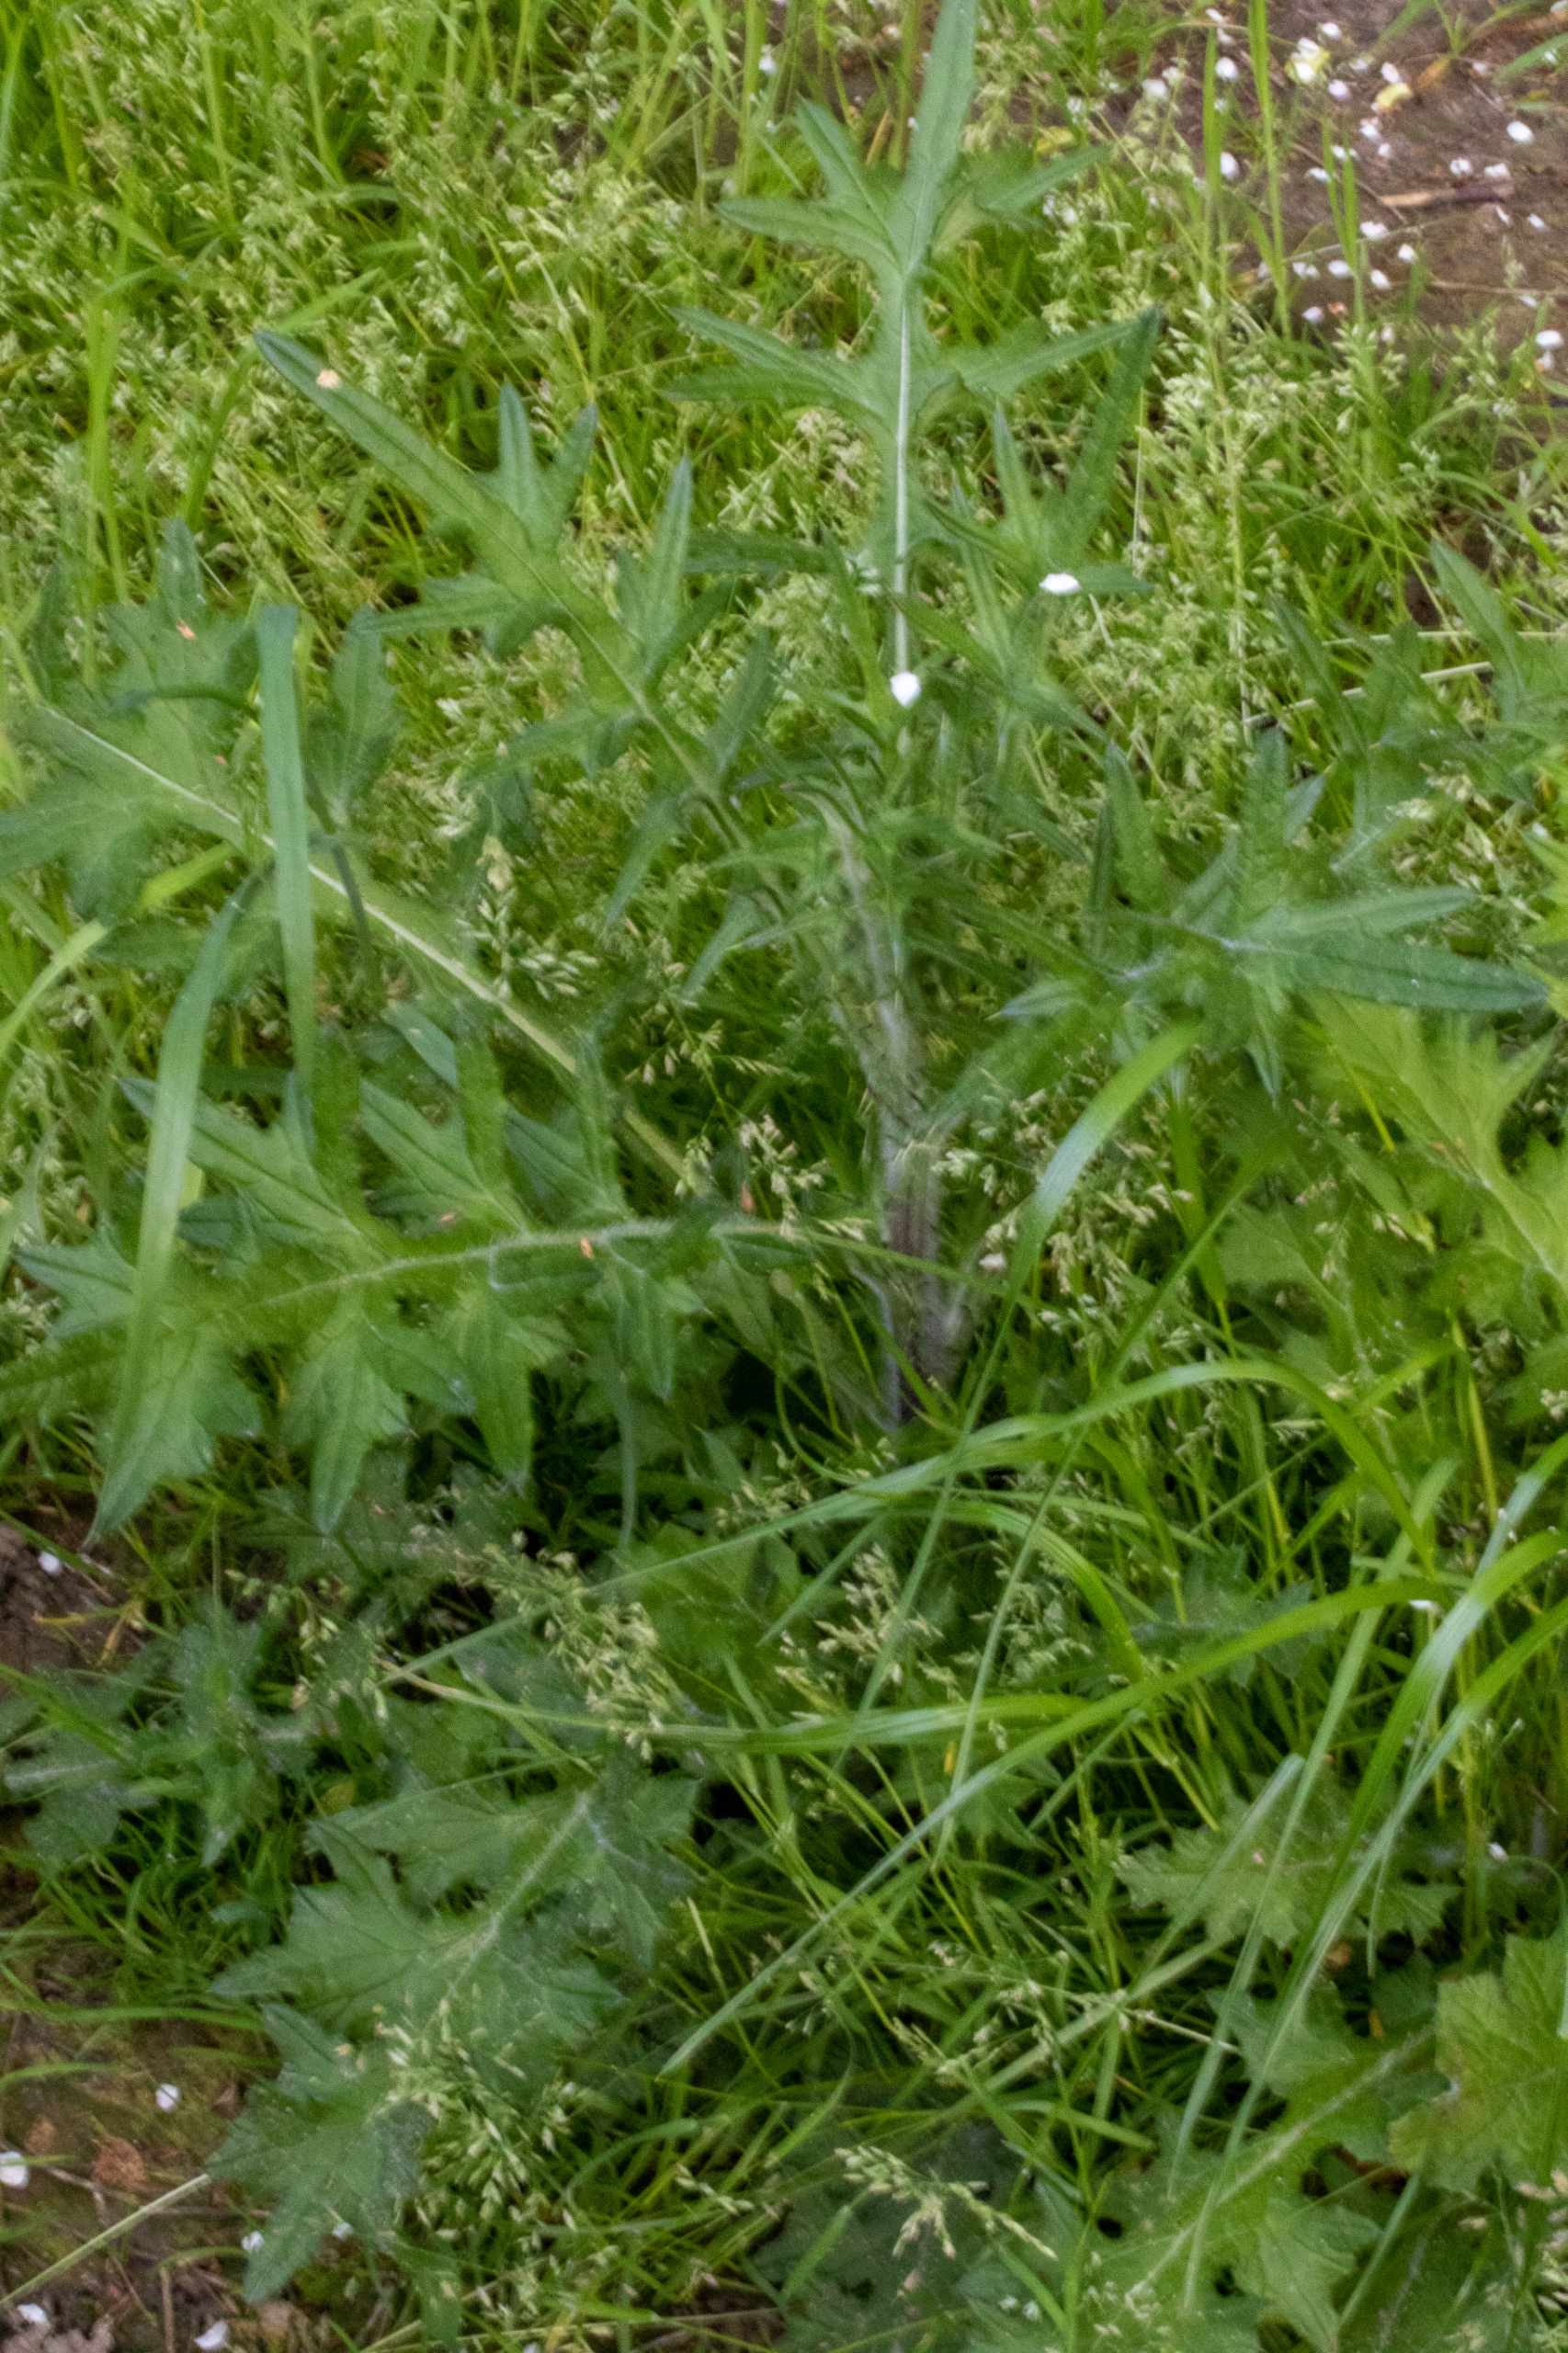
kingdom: Plantae
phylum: Tracheophyta
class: Magnoliopsida
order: Asterales
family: Asteraceae
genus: Cirsium
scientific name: Cirsium vulgare
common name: Horse-tidsel
